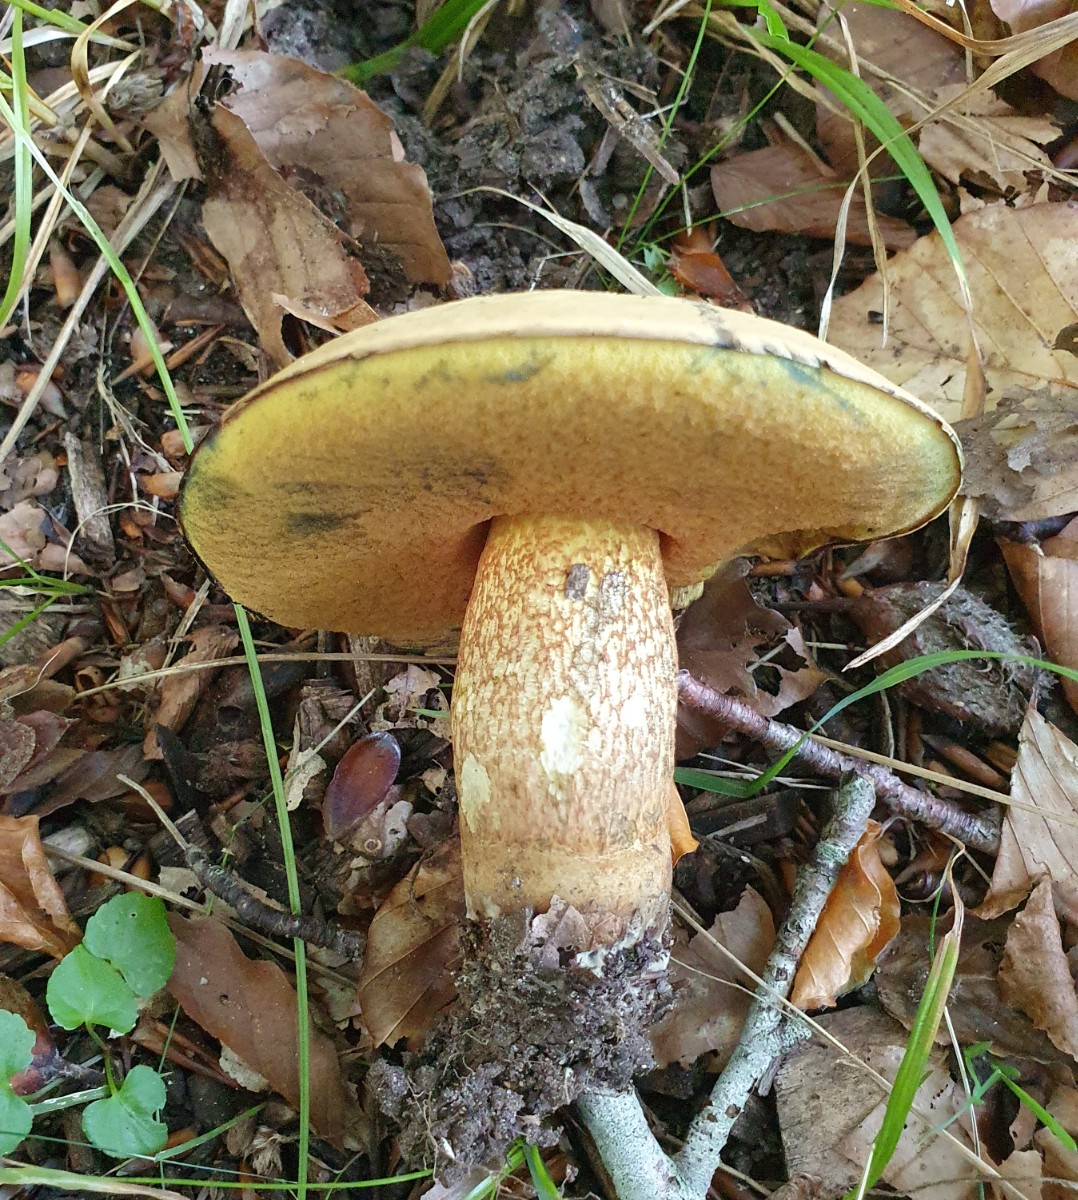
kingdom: Fungi
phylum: Basidiomycota
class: Agaricomycetes
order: Boletales
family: Boletaceae
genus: Suillellus
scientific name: Suillellus luridus
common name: netstokket indigorørhat
